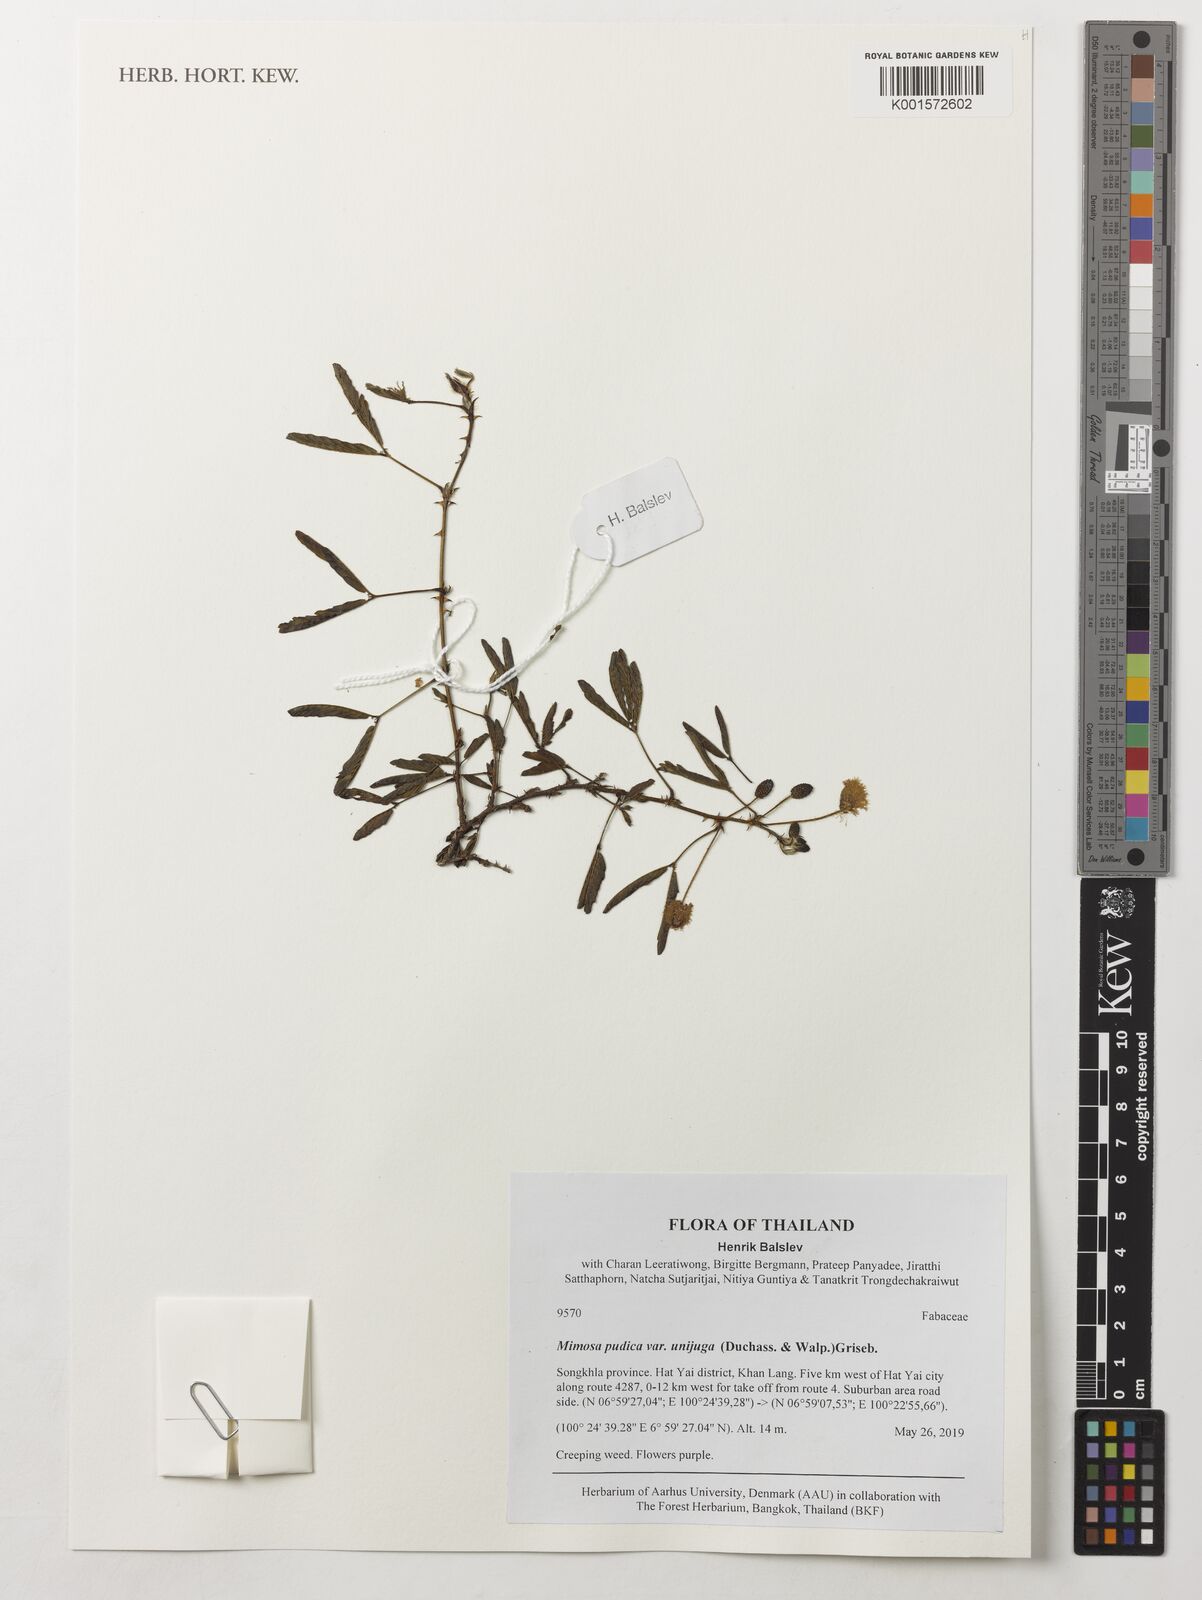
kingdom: Plantae
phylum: Tracheophyta
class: Magnoliopsida
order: Fabales
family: Fabaceae
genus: Mimosa
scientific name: Mimosa pudica
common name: Sensitive plant
